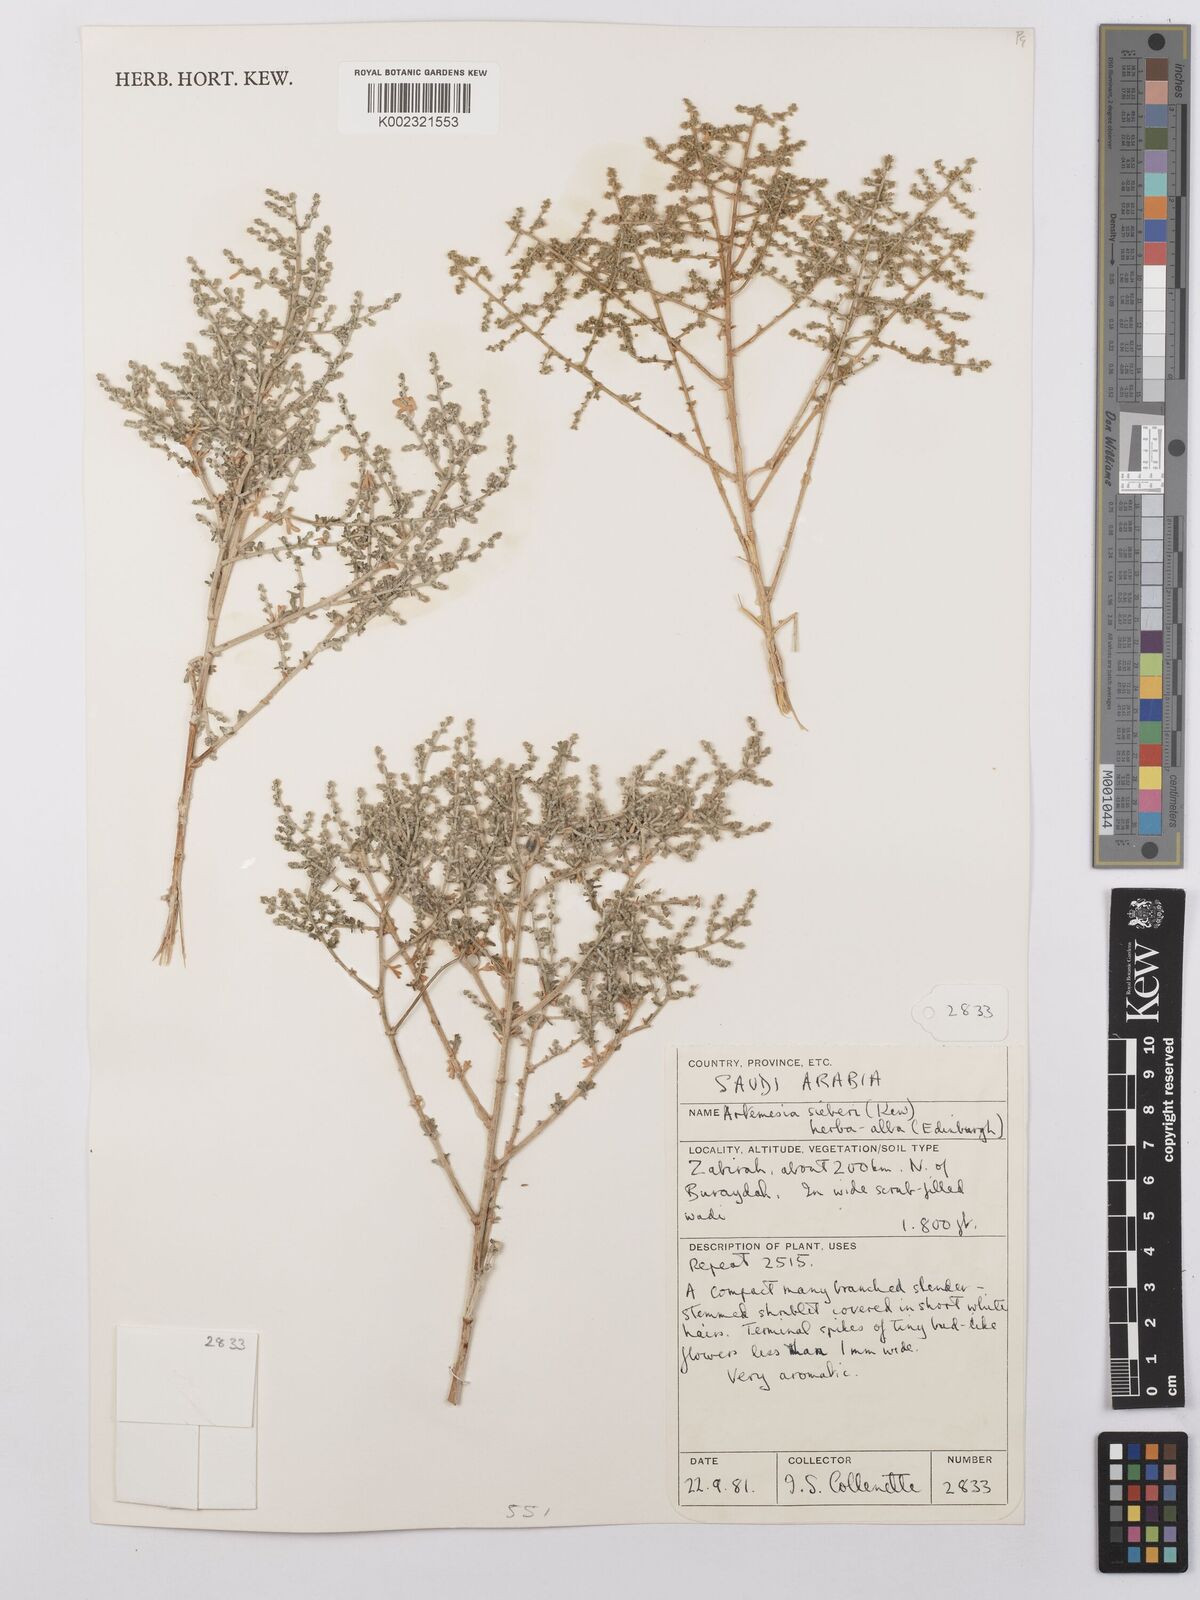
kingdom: Plantae
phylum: Tracheophyta
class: Magnoliopsida
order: Asterales
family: Asteraceae
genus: Artemisia
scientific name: Artemisia sieberi
